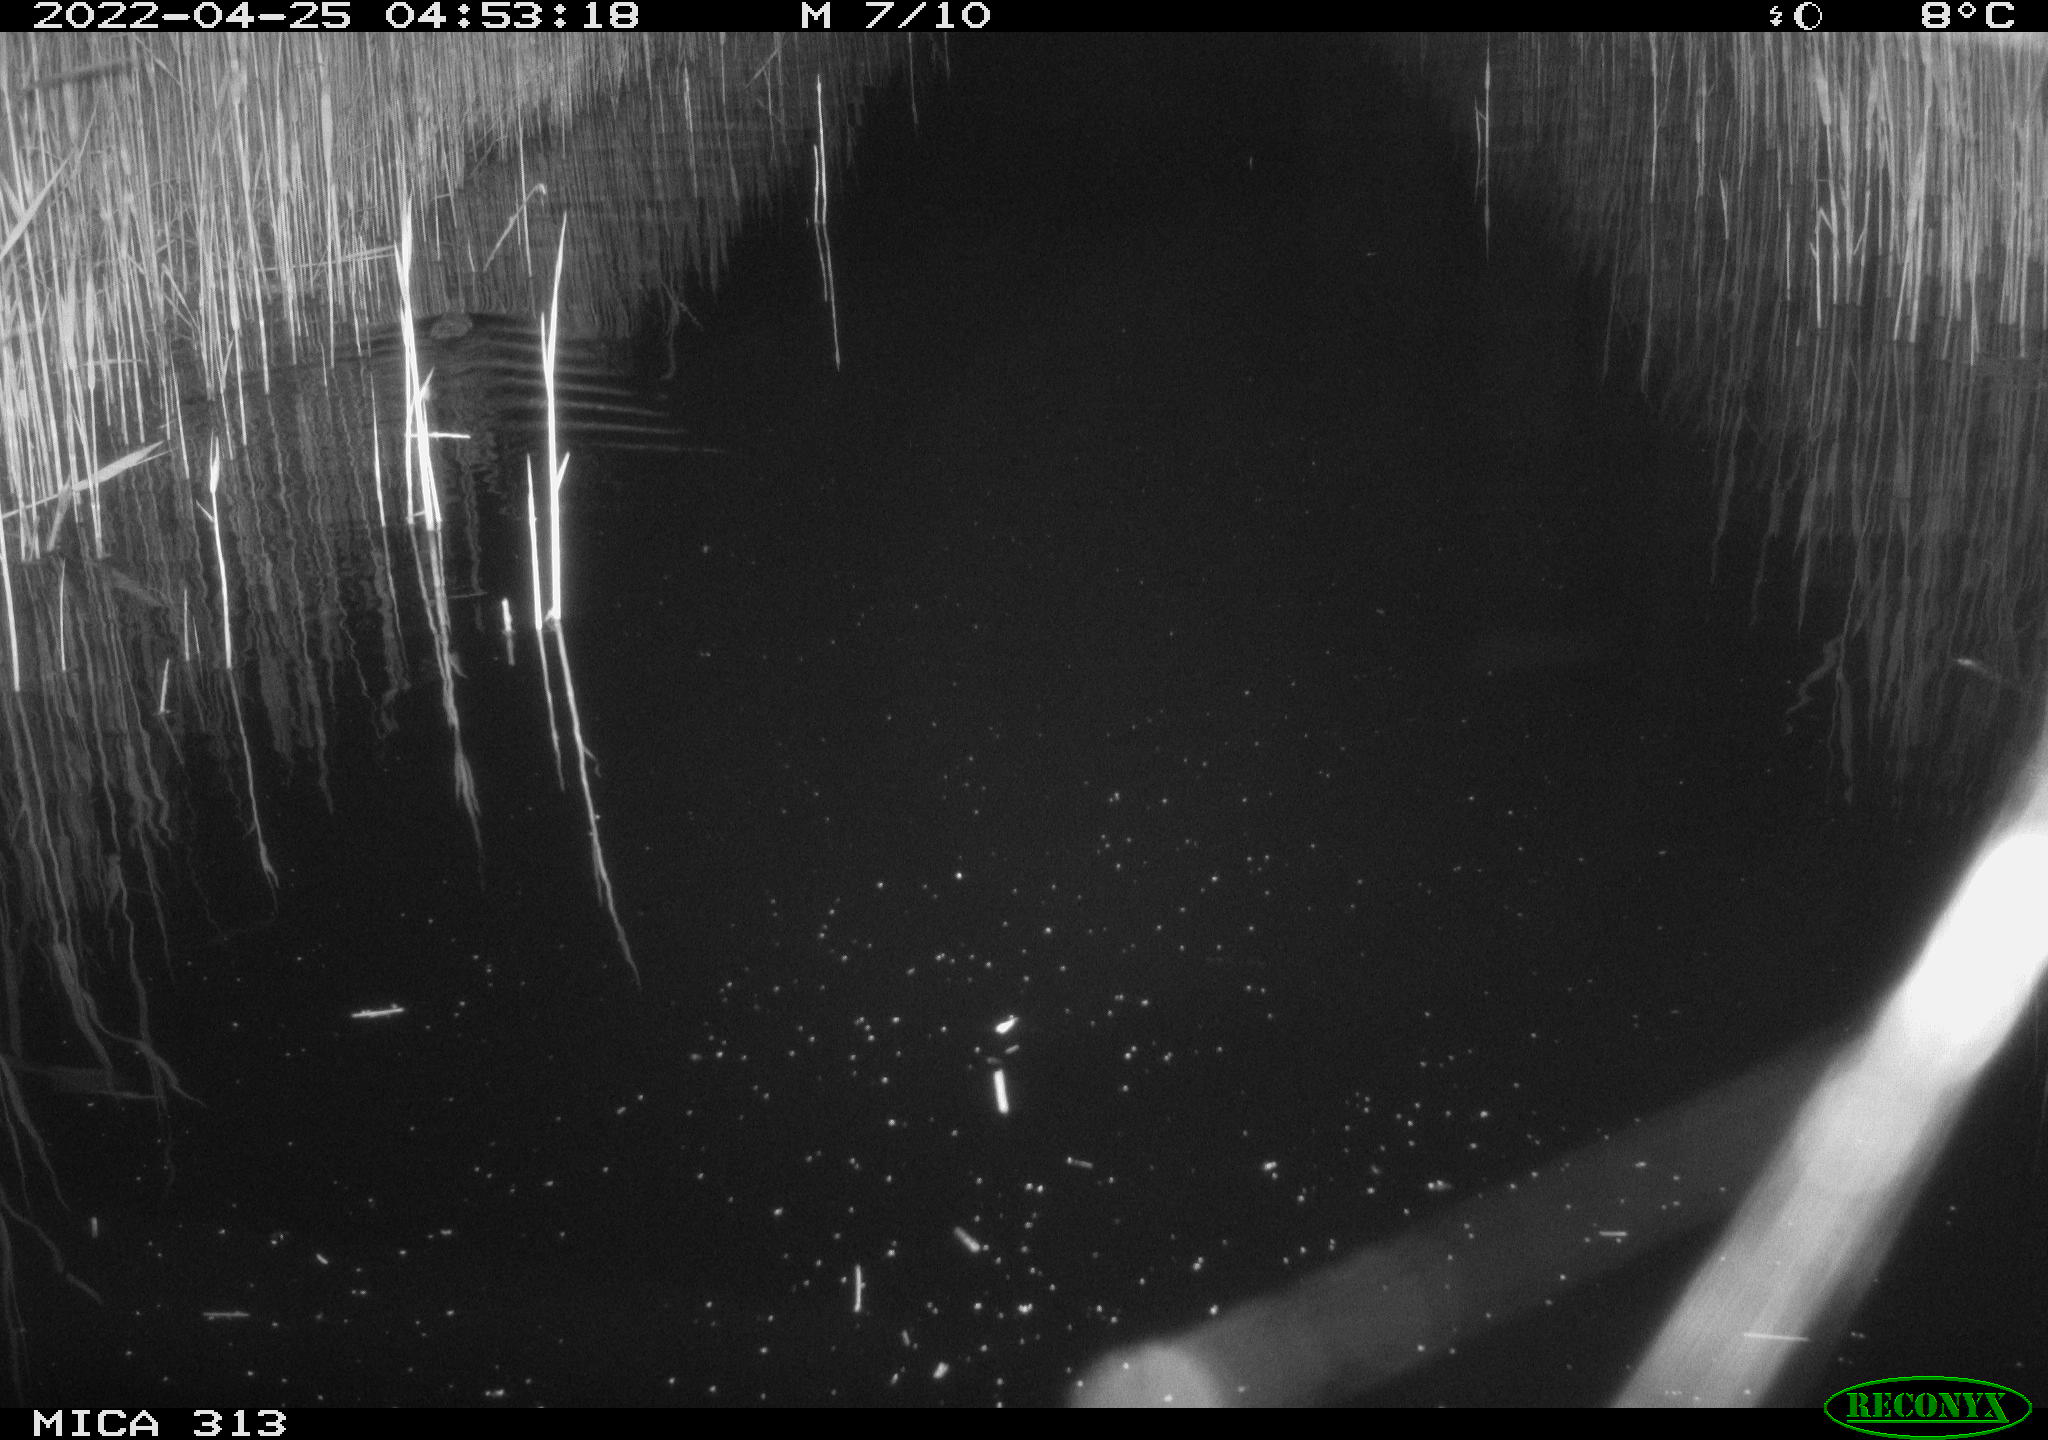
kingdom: Animalia
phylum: Chordata
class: Mammalia
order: Rodentia
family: Muridae
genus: Rattus
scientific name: Rattus norvegicus
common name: Brown rat
